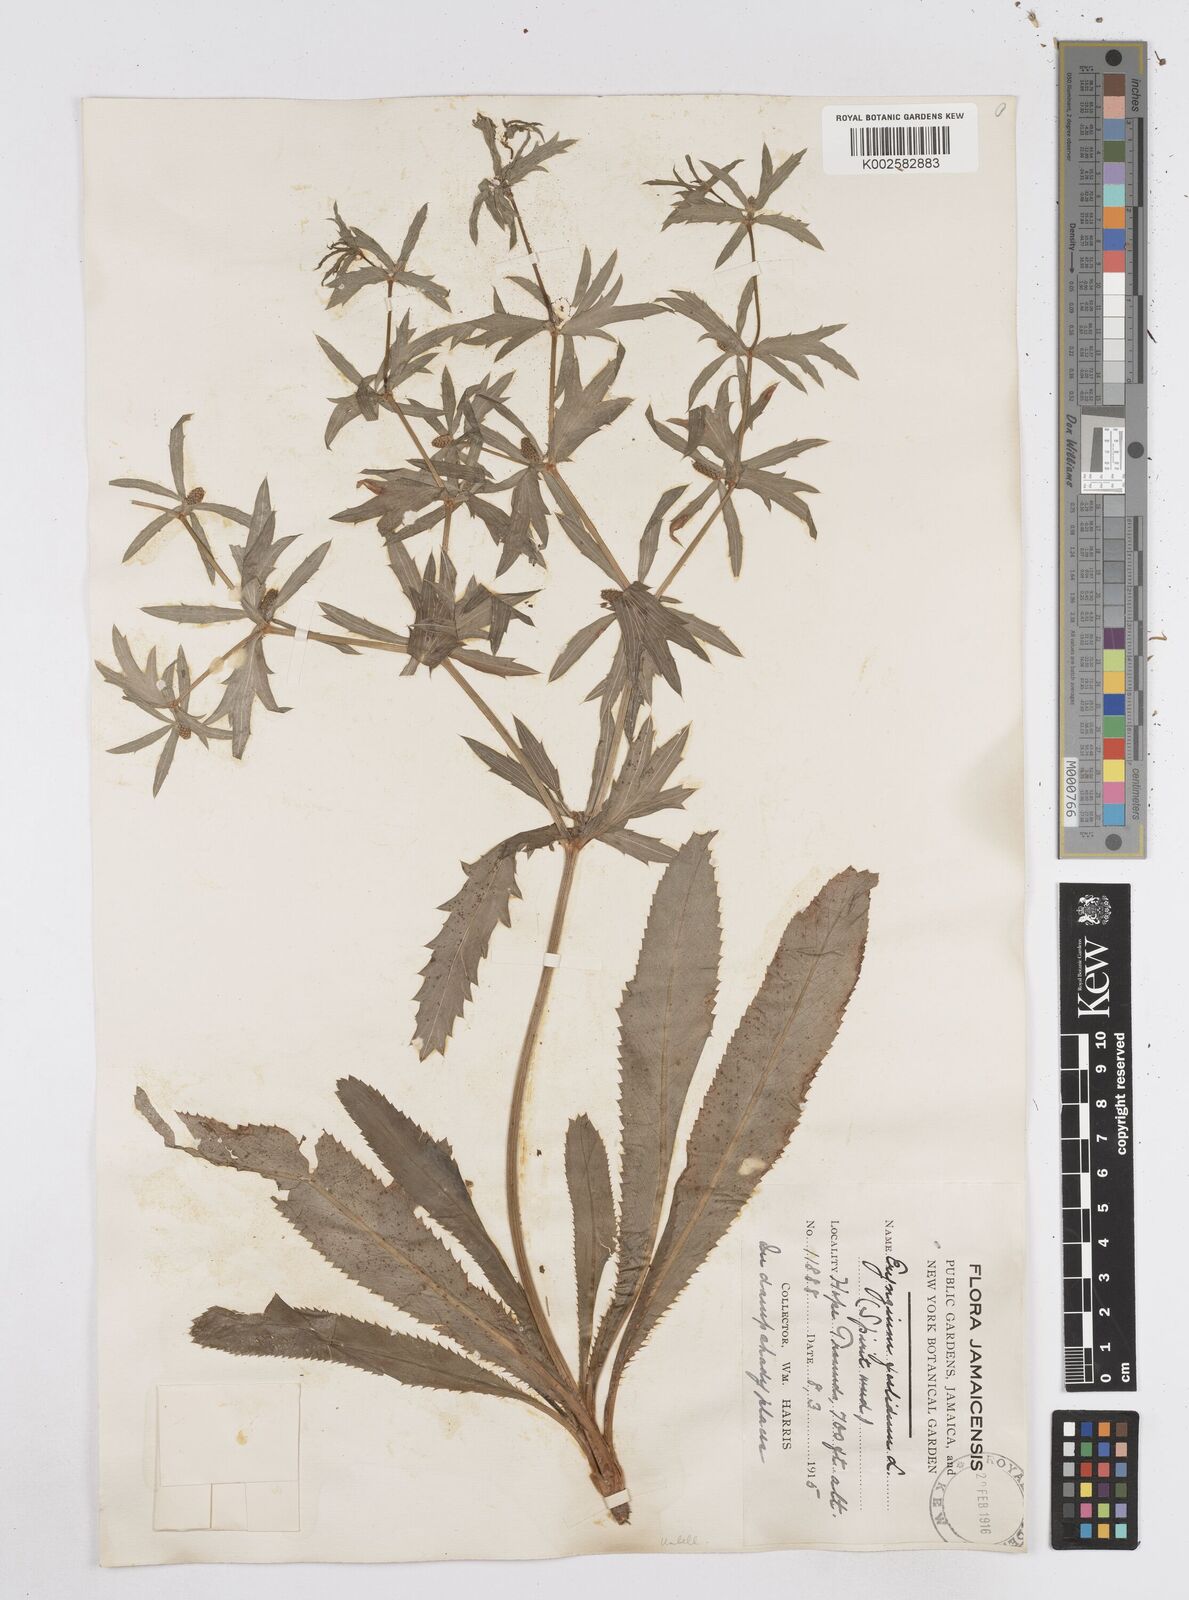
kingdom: Plantae
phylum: Tracheophyta
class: Magnoliopsida
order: Apiales
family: Apiaceae
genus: Eryngium
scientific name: Eryngium foetidum
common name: Fitweed
